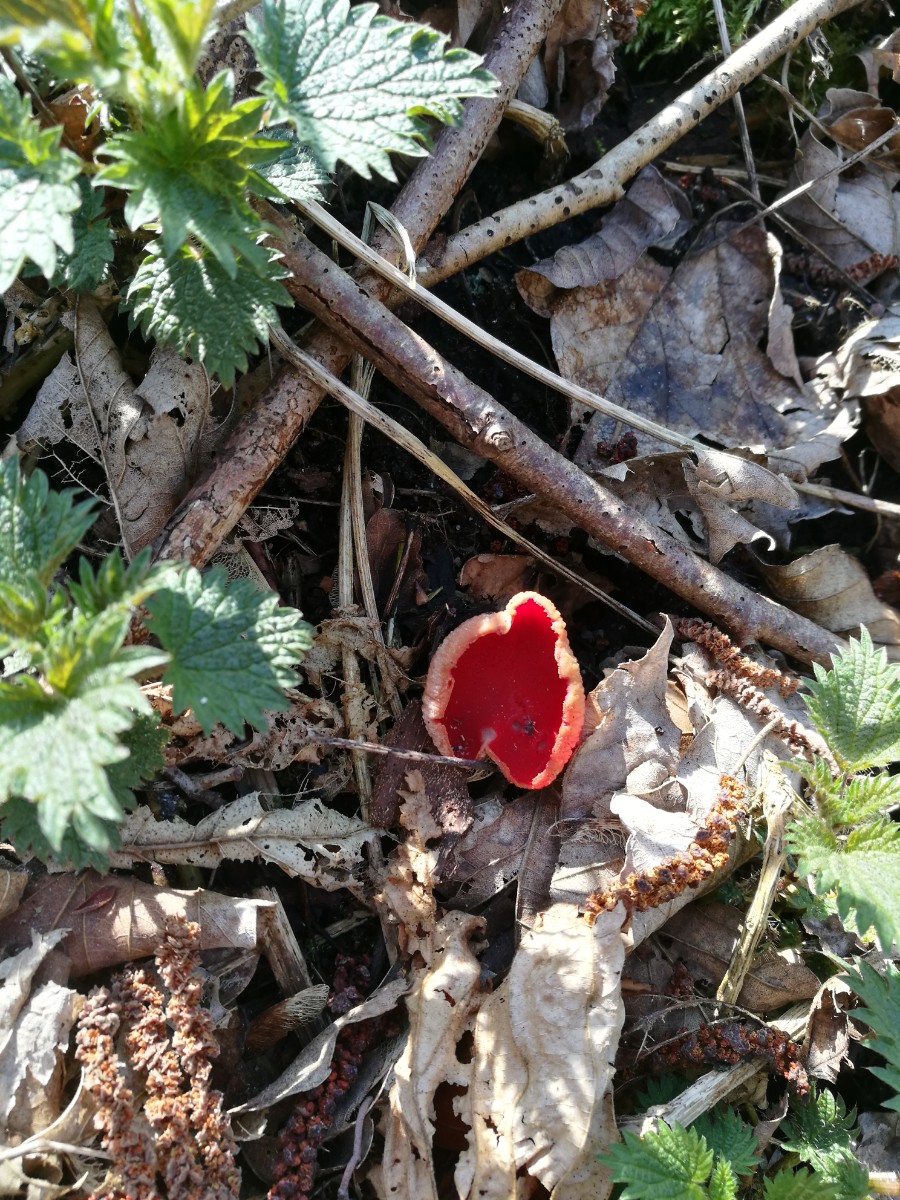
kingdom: Fungi
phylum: Ascomycota
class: Pezizomycetes
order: Pezizales
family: Sarcoscyphaceae
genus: Sarcoscypha
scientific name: Sarcoscypha austriaca
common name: krølhåret pragtbæger
